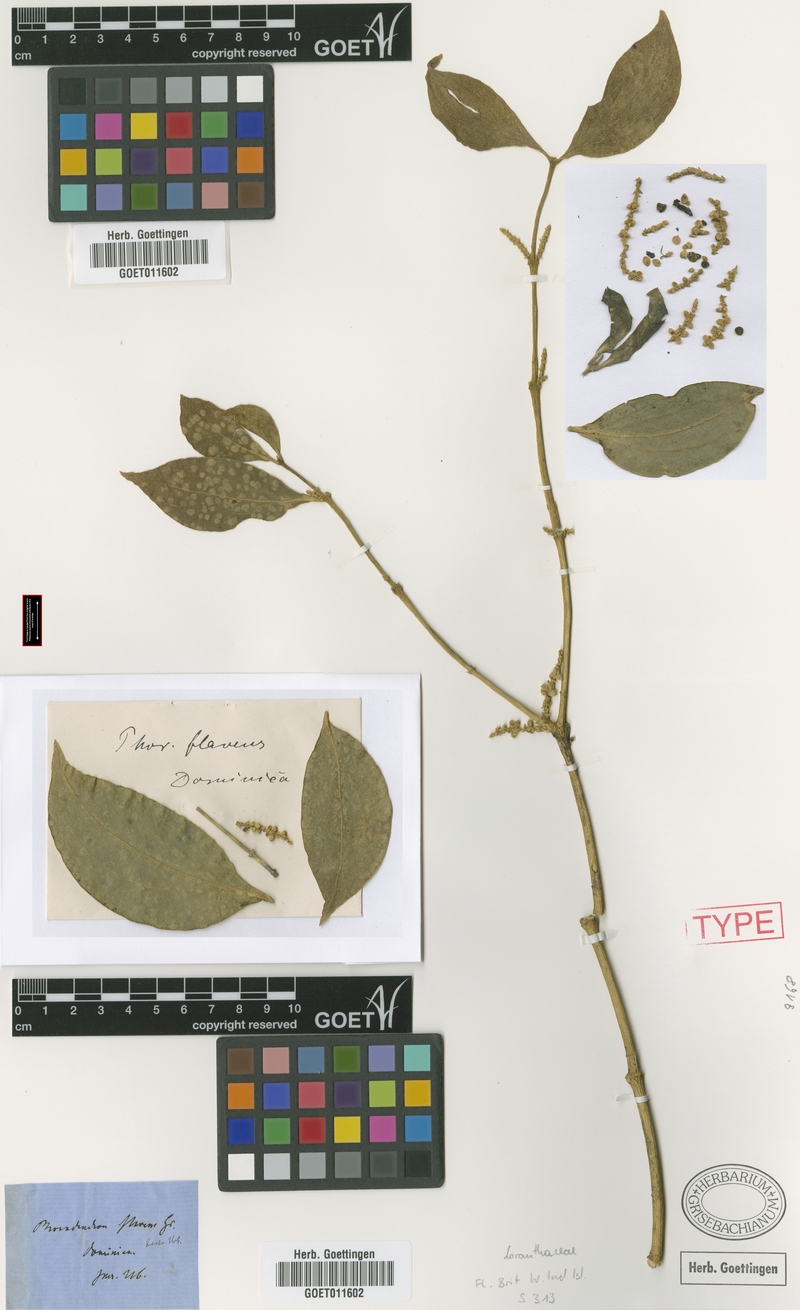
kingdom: Plantae
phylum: Tracheophyta
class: Magnoliopsida
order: Santalales
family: Viscaceae
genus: Phoradendron
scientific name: Phoradendron chrysocladon
